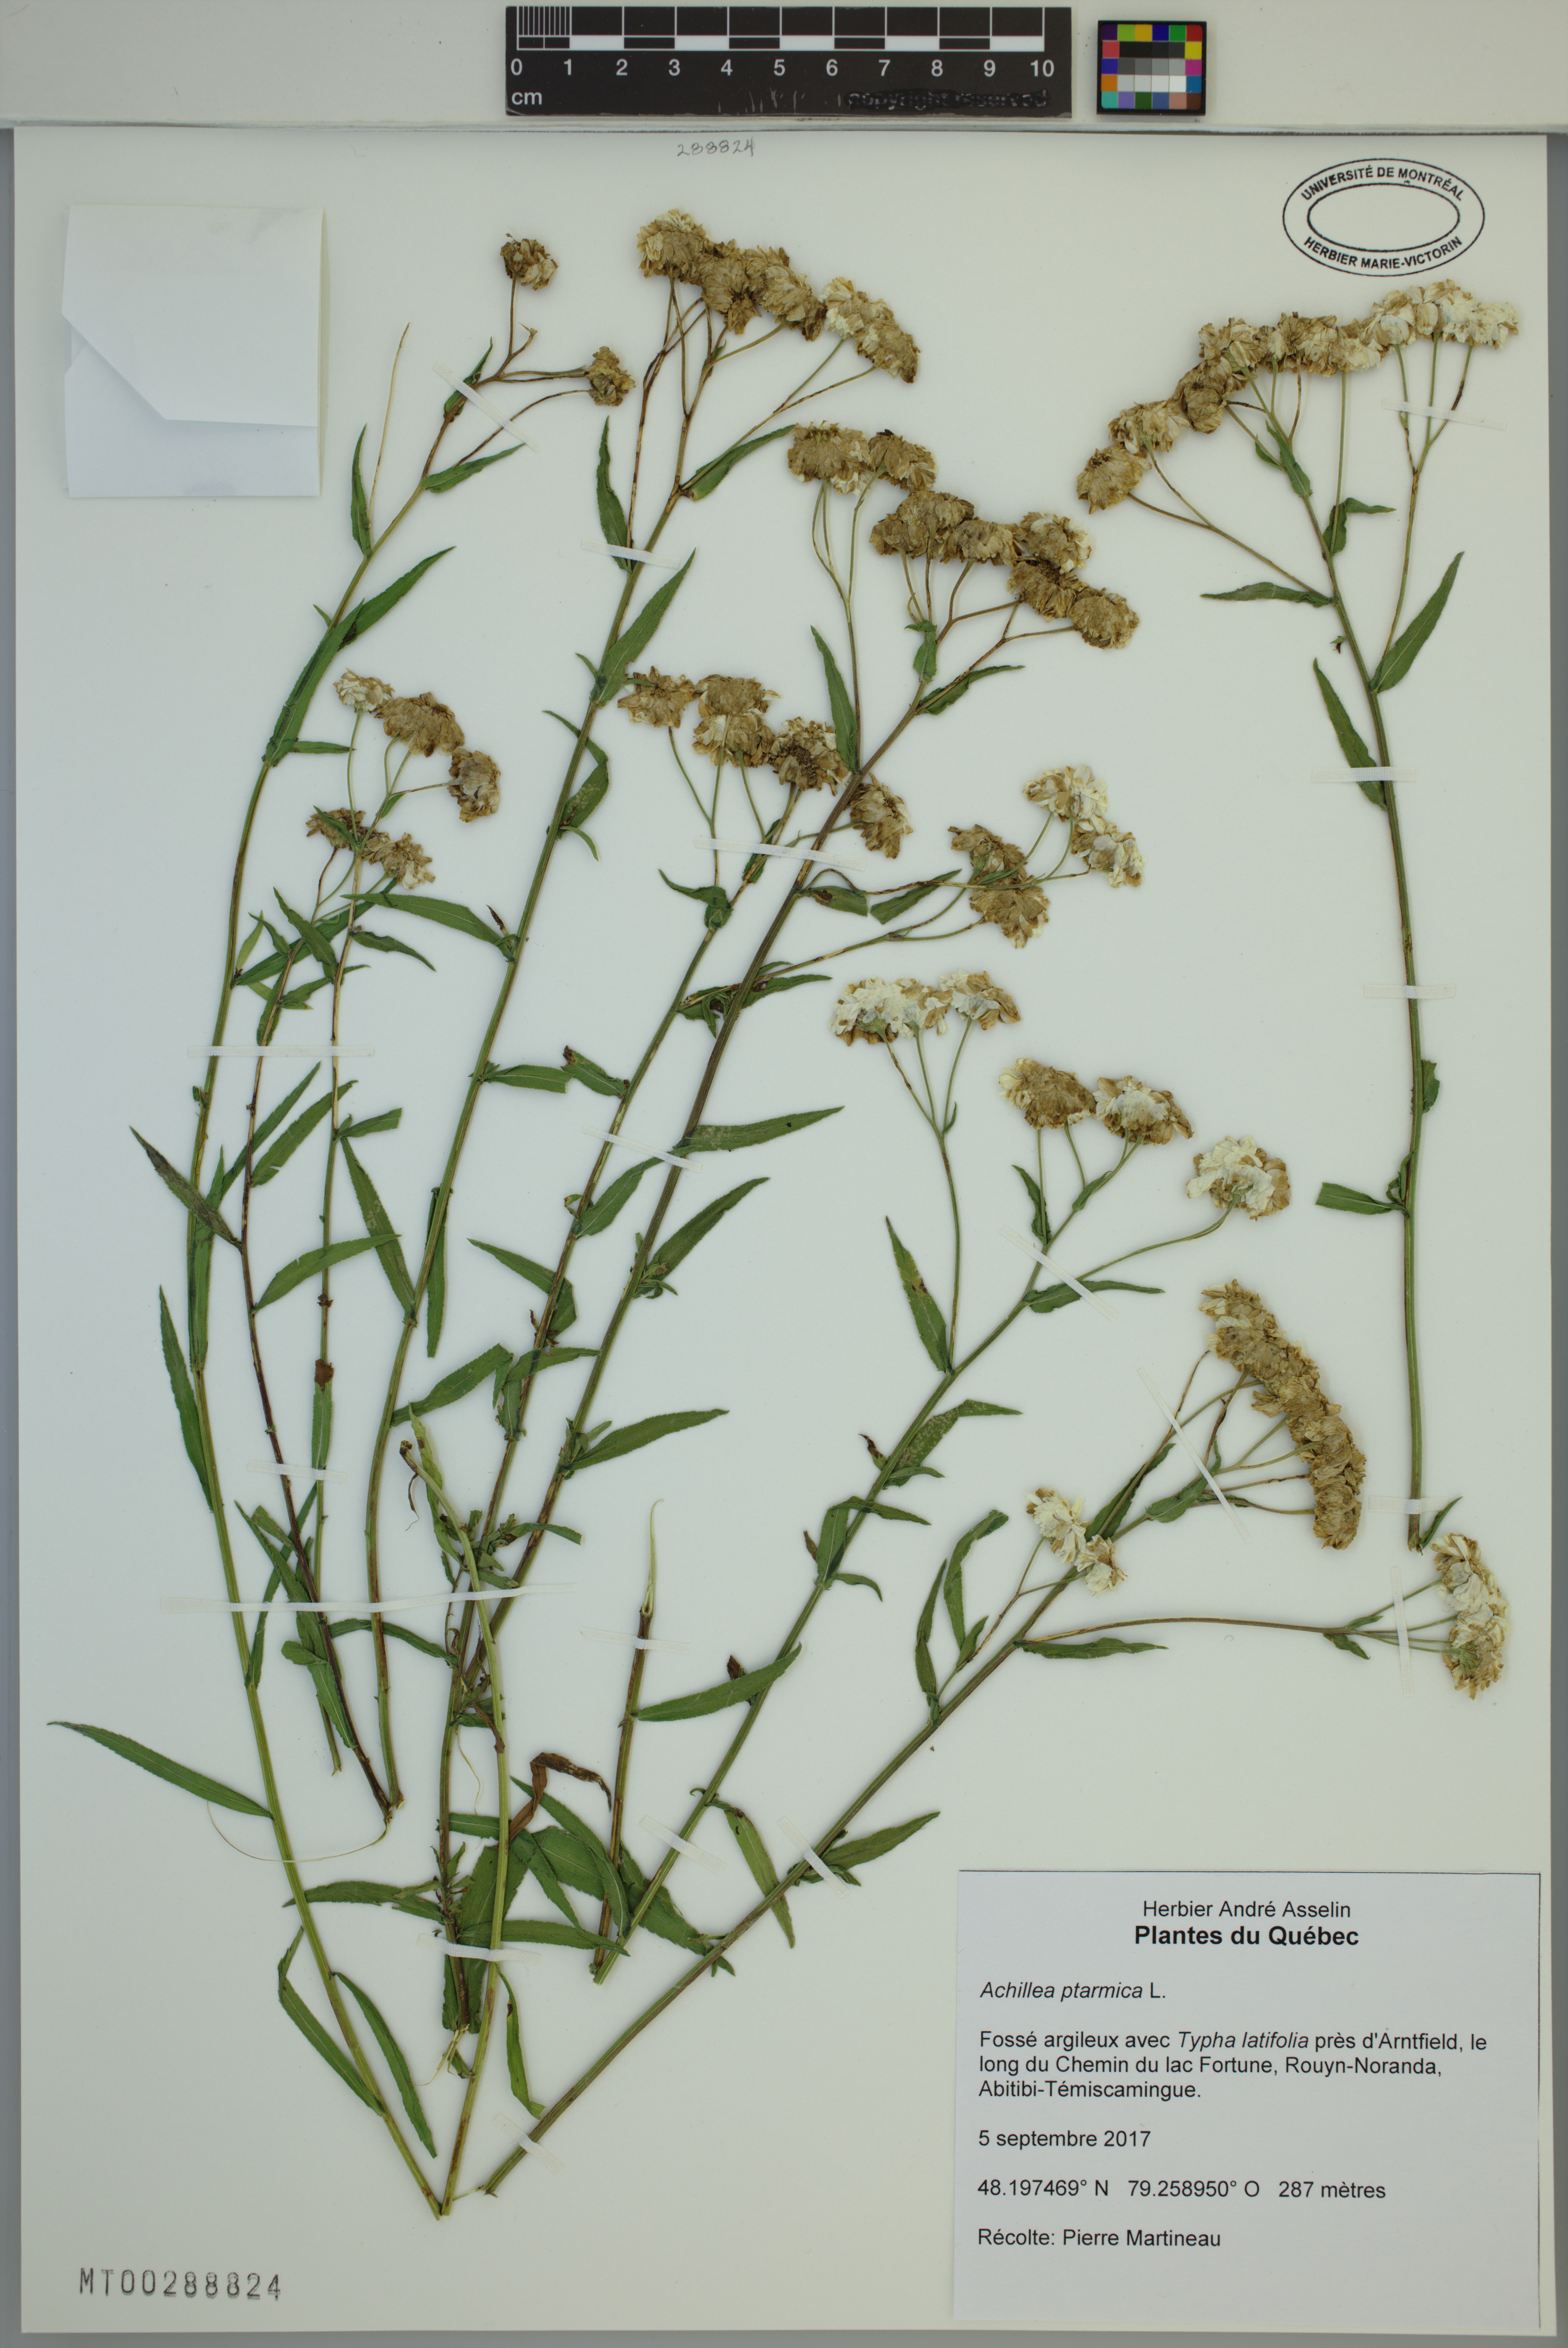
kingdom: Plantae
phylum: Tracheophyta
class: Magnoliopsida
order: Asterales
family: Asteraceae
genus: Achillea
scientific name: Achillea ptarmica
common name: Sneezeweed
